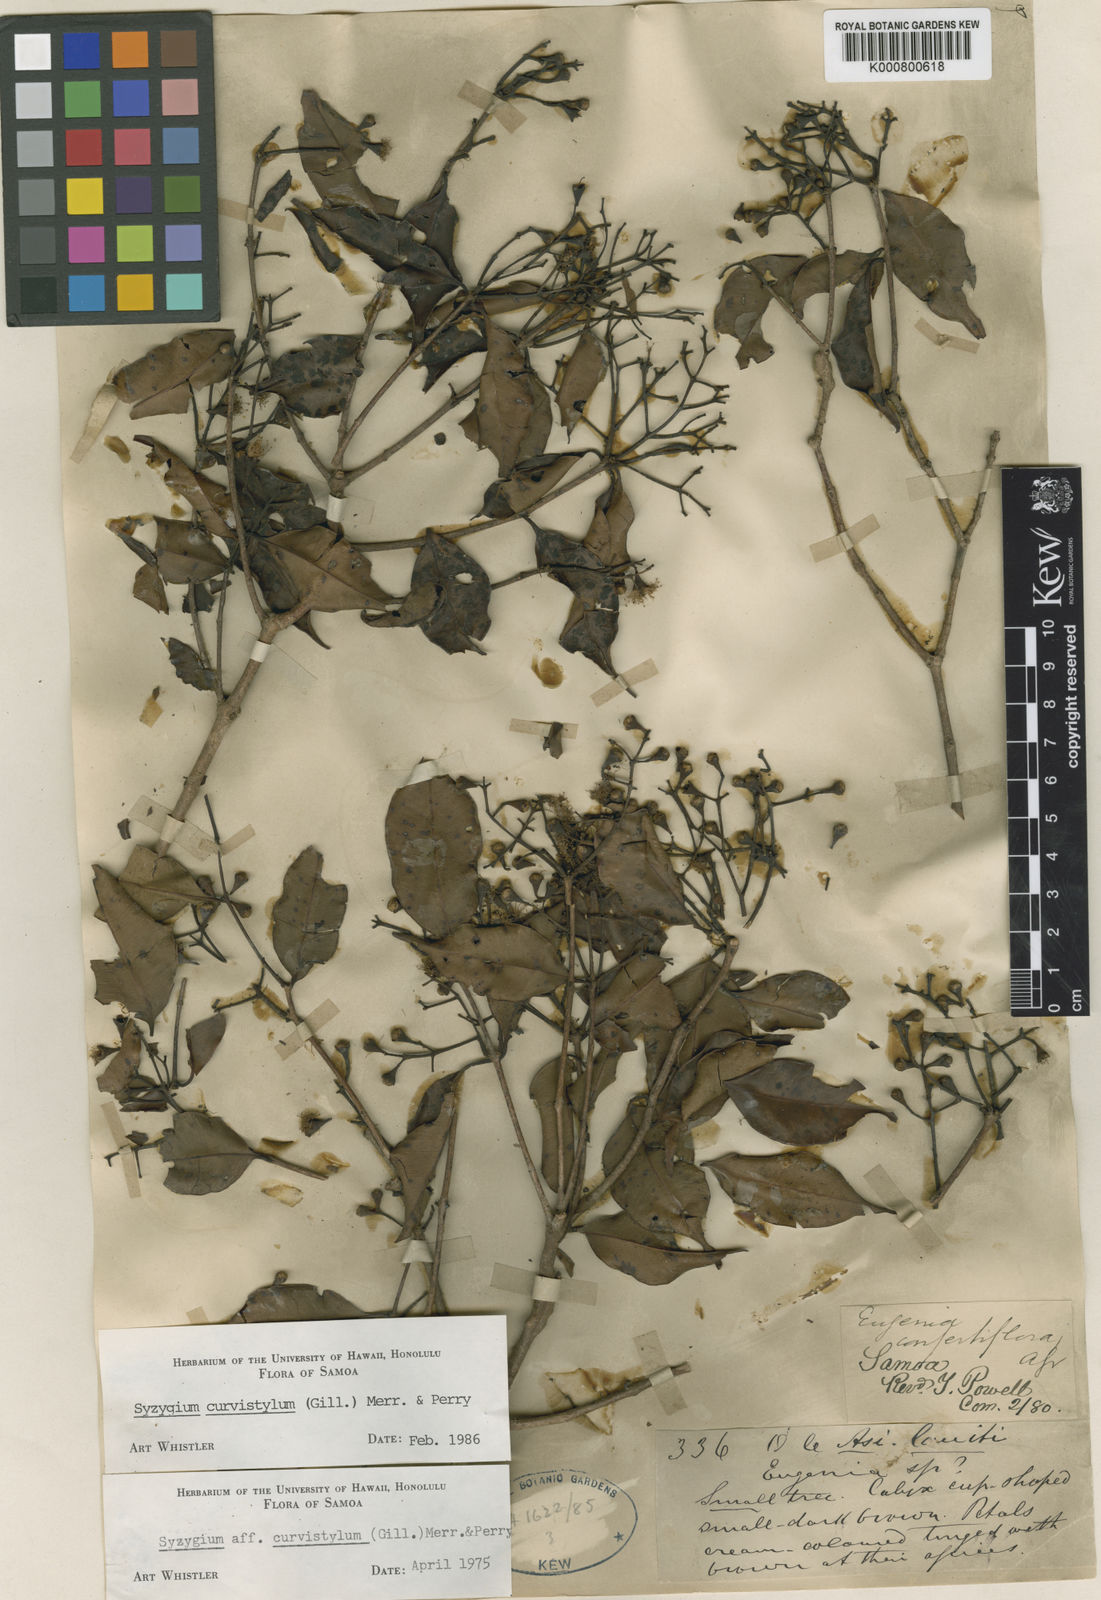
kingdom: Plantae
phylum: Tracheophyta
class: Magnoliopsida
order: Myrtales
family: Myrtaceae
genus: Syzygium
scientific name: Syzygium curvistylum
